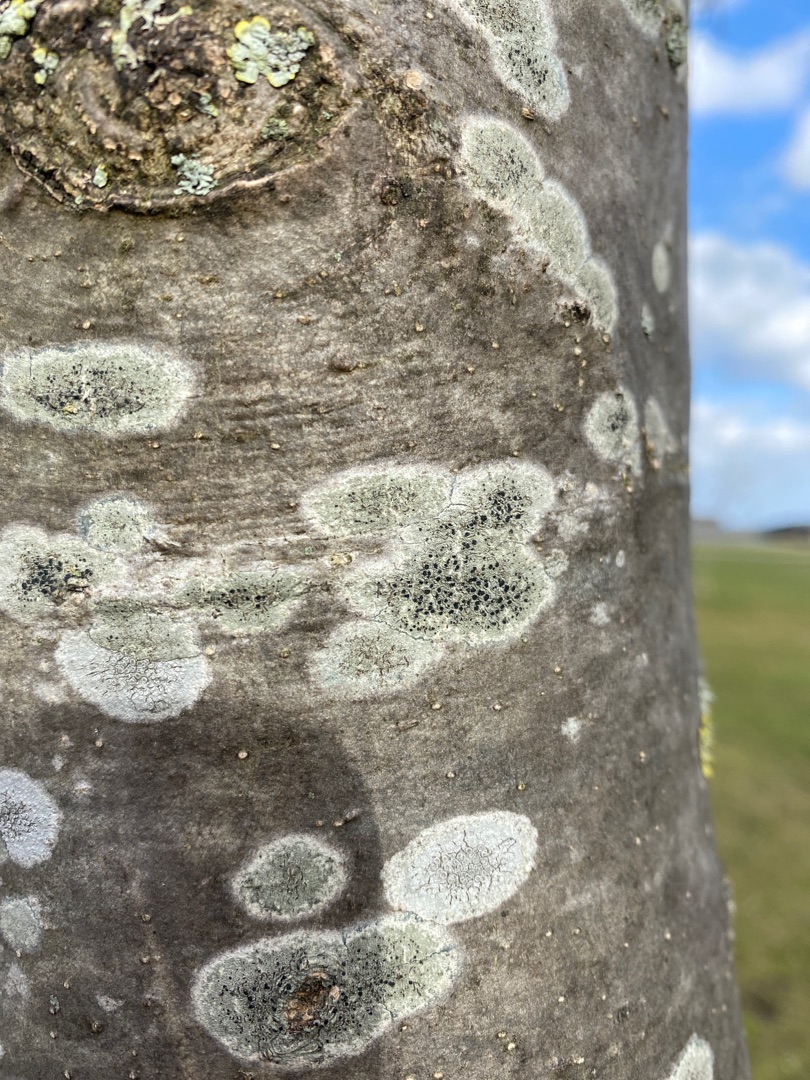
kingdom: Fungi
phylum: Ascomycota
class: Lecanoromycetes
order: Lecanorales
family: Lecanoraceae
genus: Lecidella
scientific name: Lecidella elaeochroma
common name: Grågrøn skivelav
